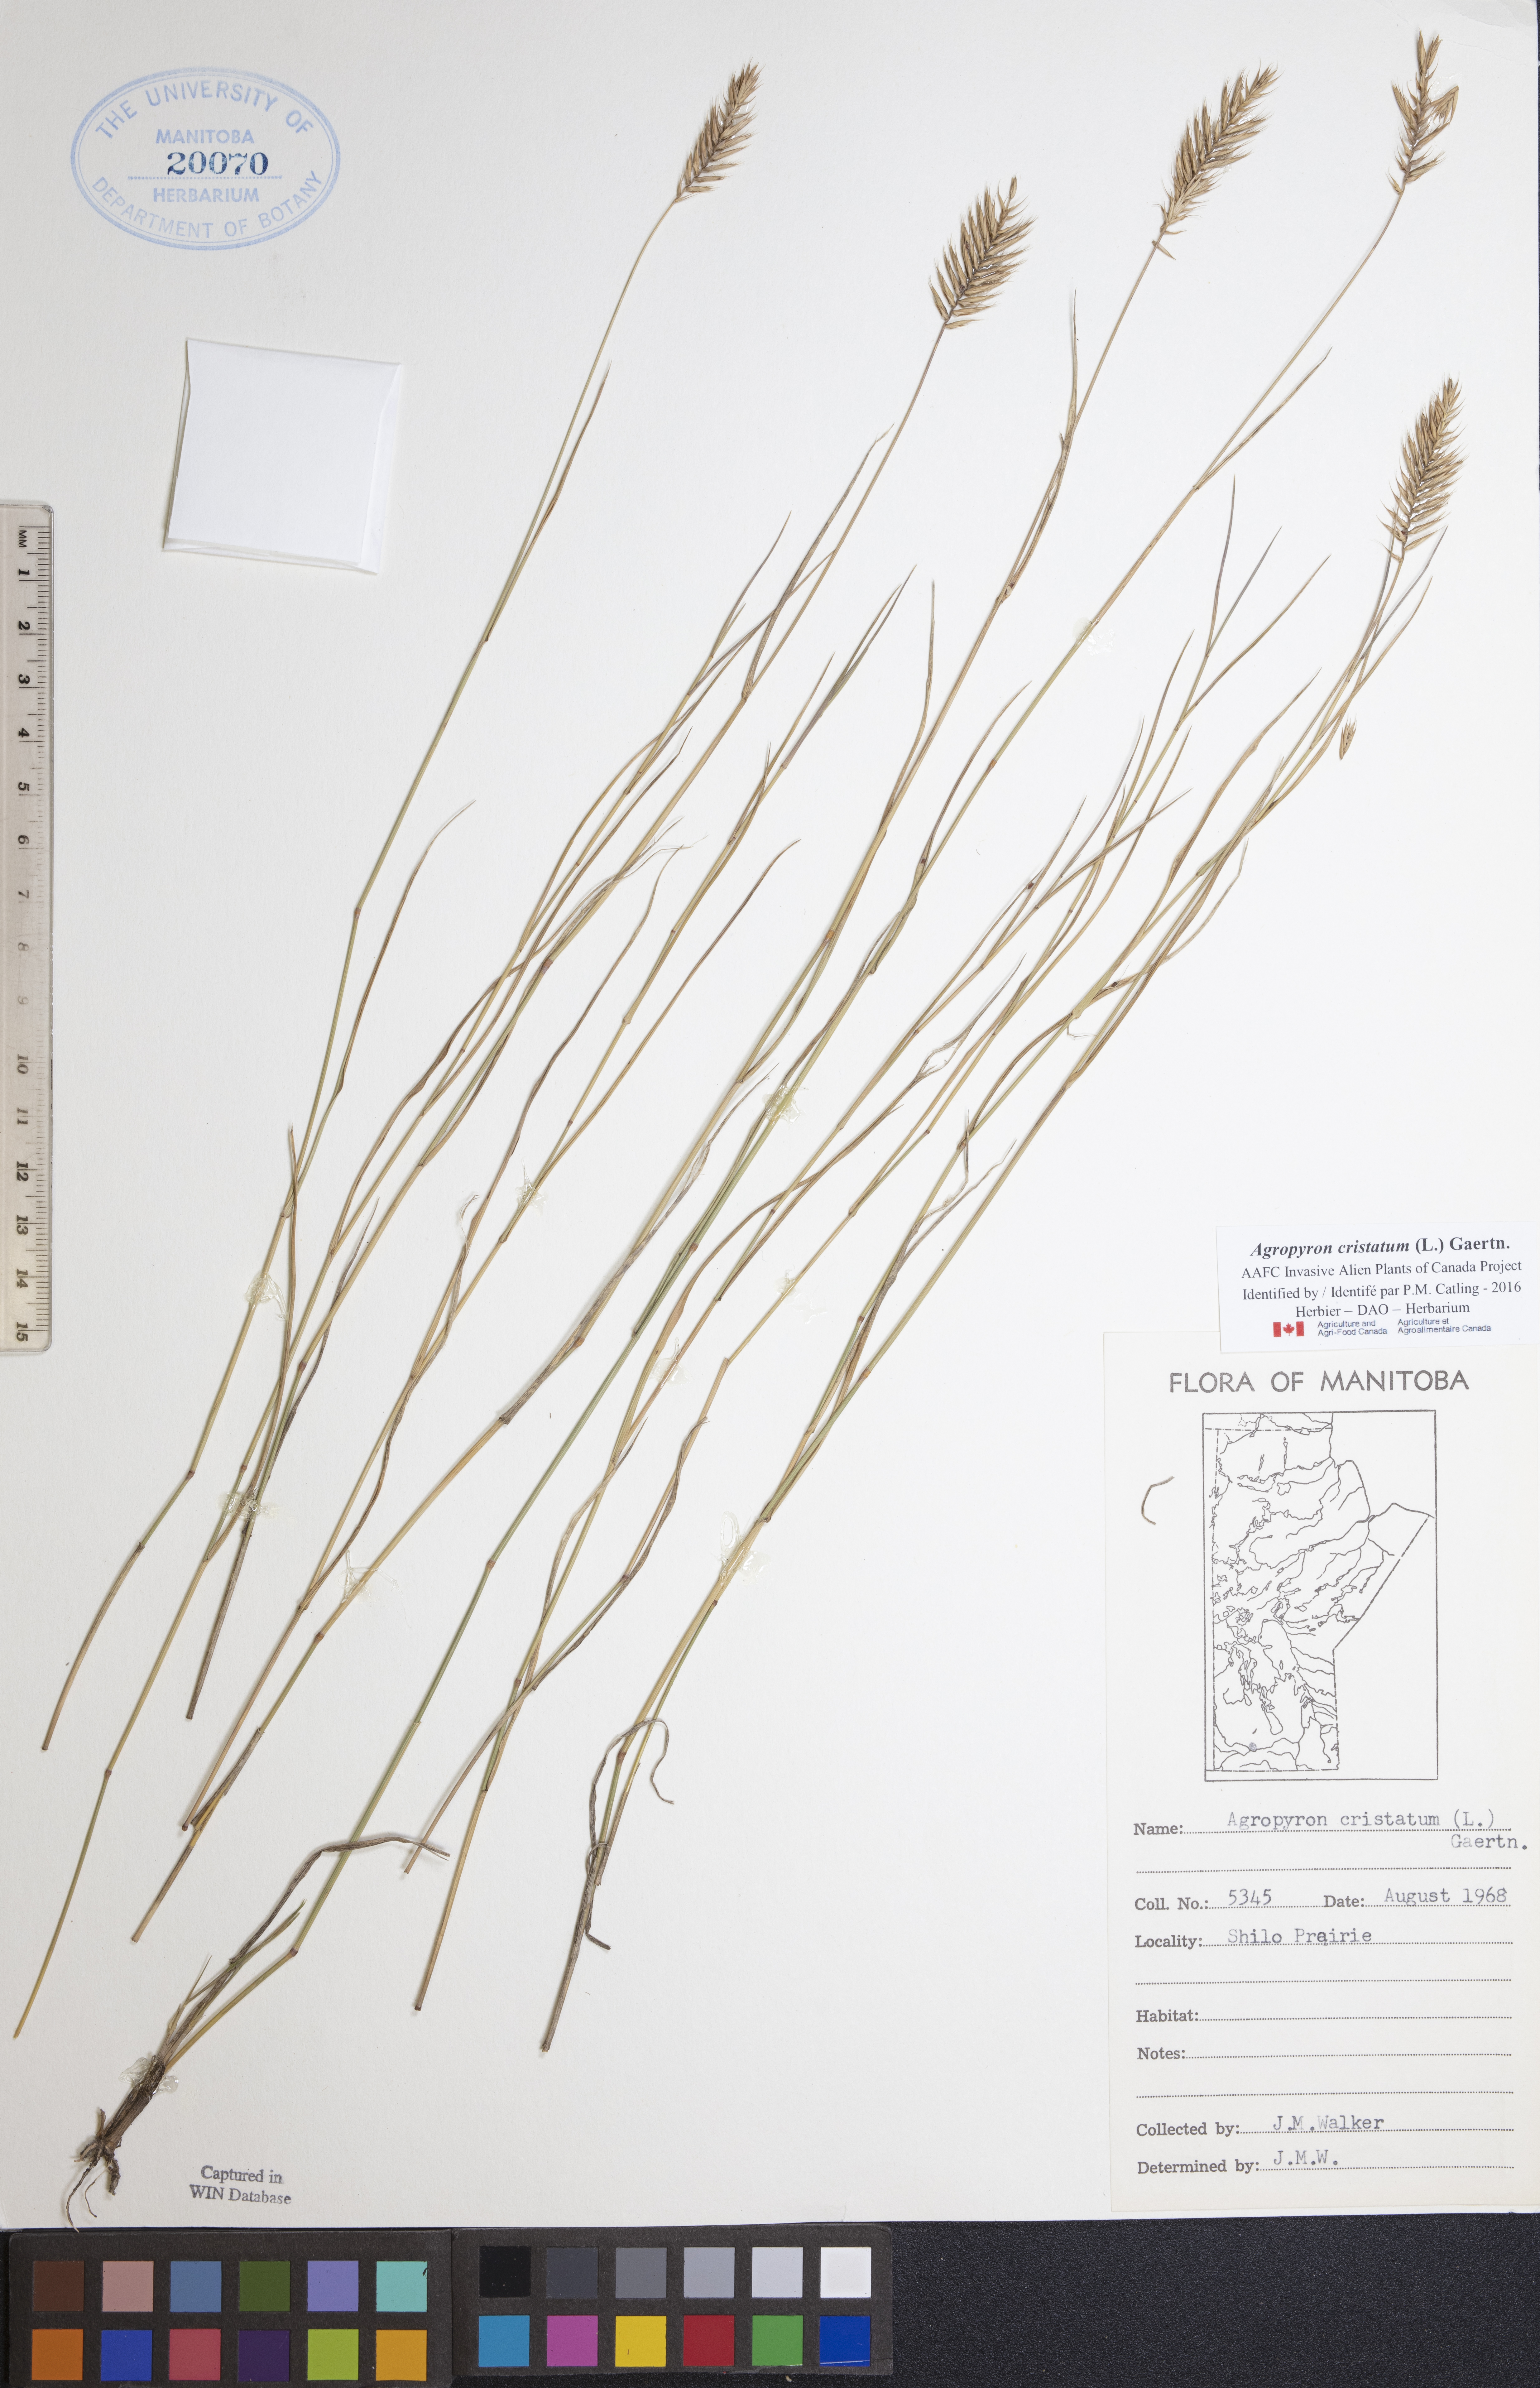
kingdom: Plantae
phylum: Tracheophyta
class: Liliopsida
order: Poales
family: Poaceae
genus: Agropyron
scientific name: Agropyron cristatum
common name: Crested wheatgrass
